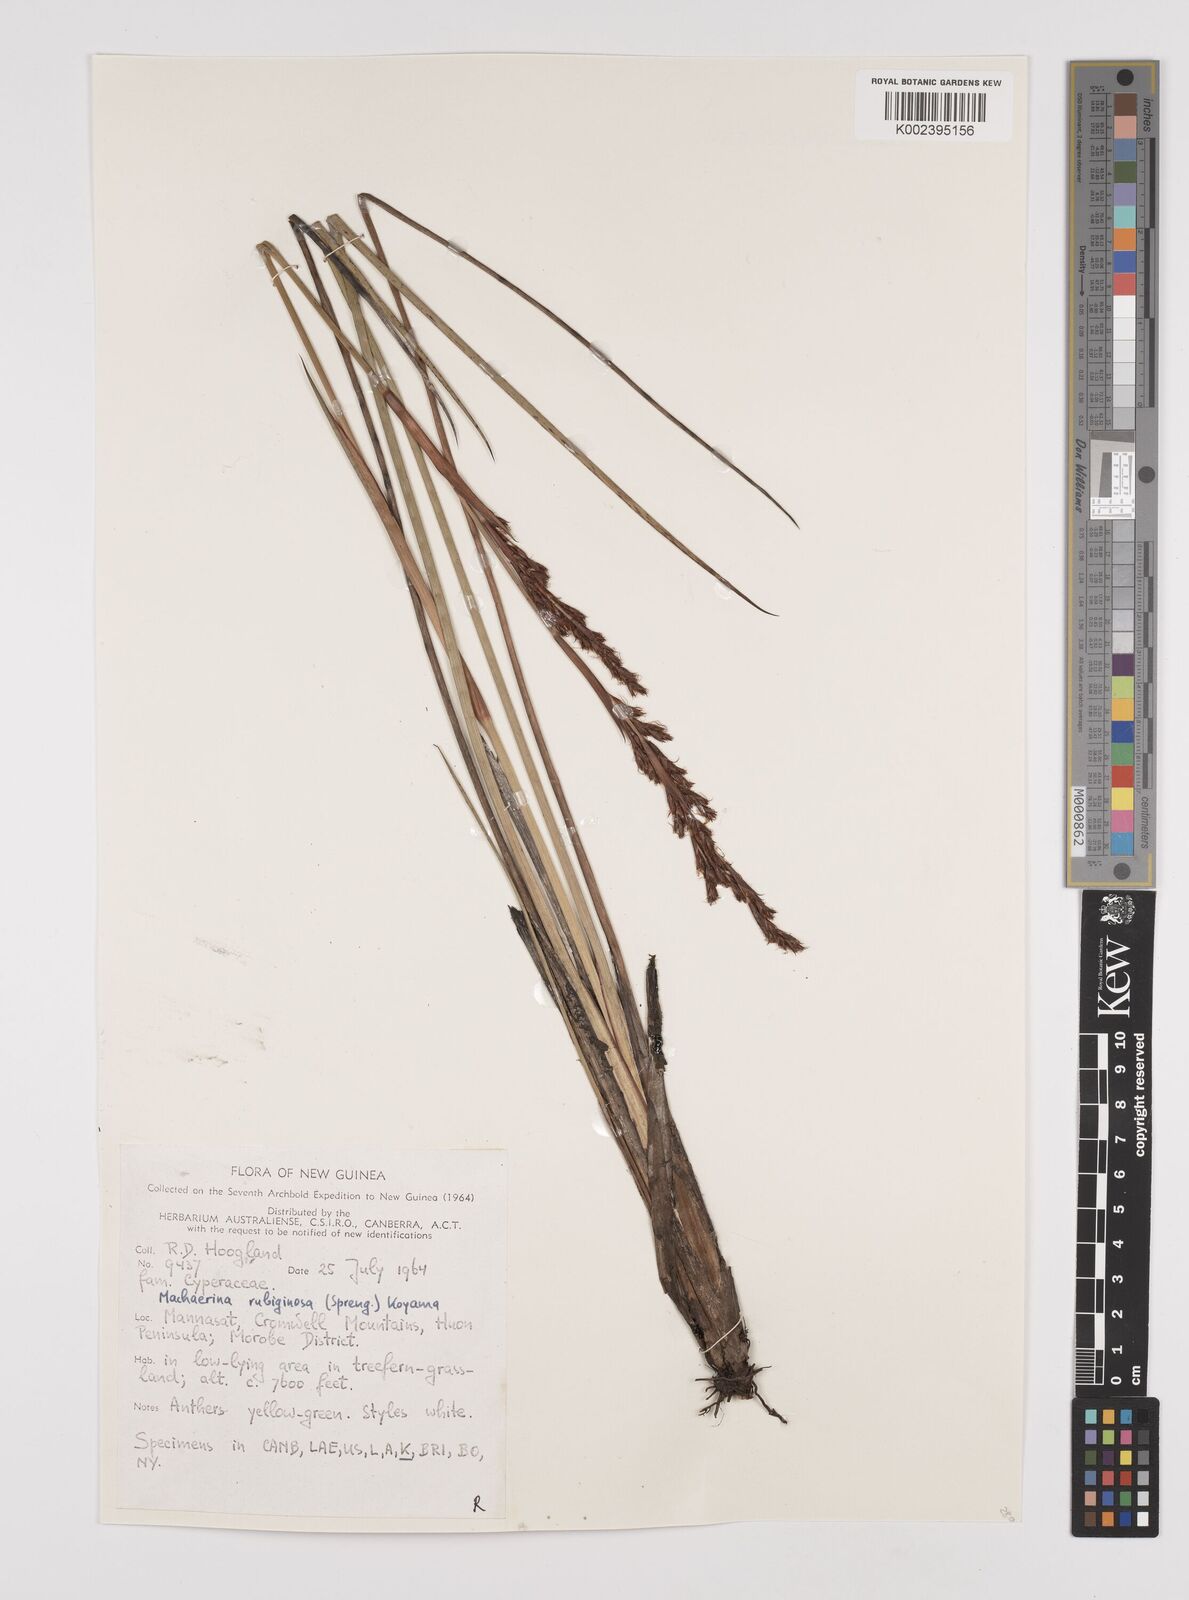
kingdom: Plantae
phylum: Tracheophyta
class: Liliopsida
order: Poales
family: Cyperaceae
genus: Machaerina
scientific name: Machaerina rubiginosa
